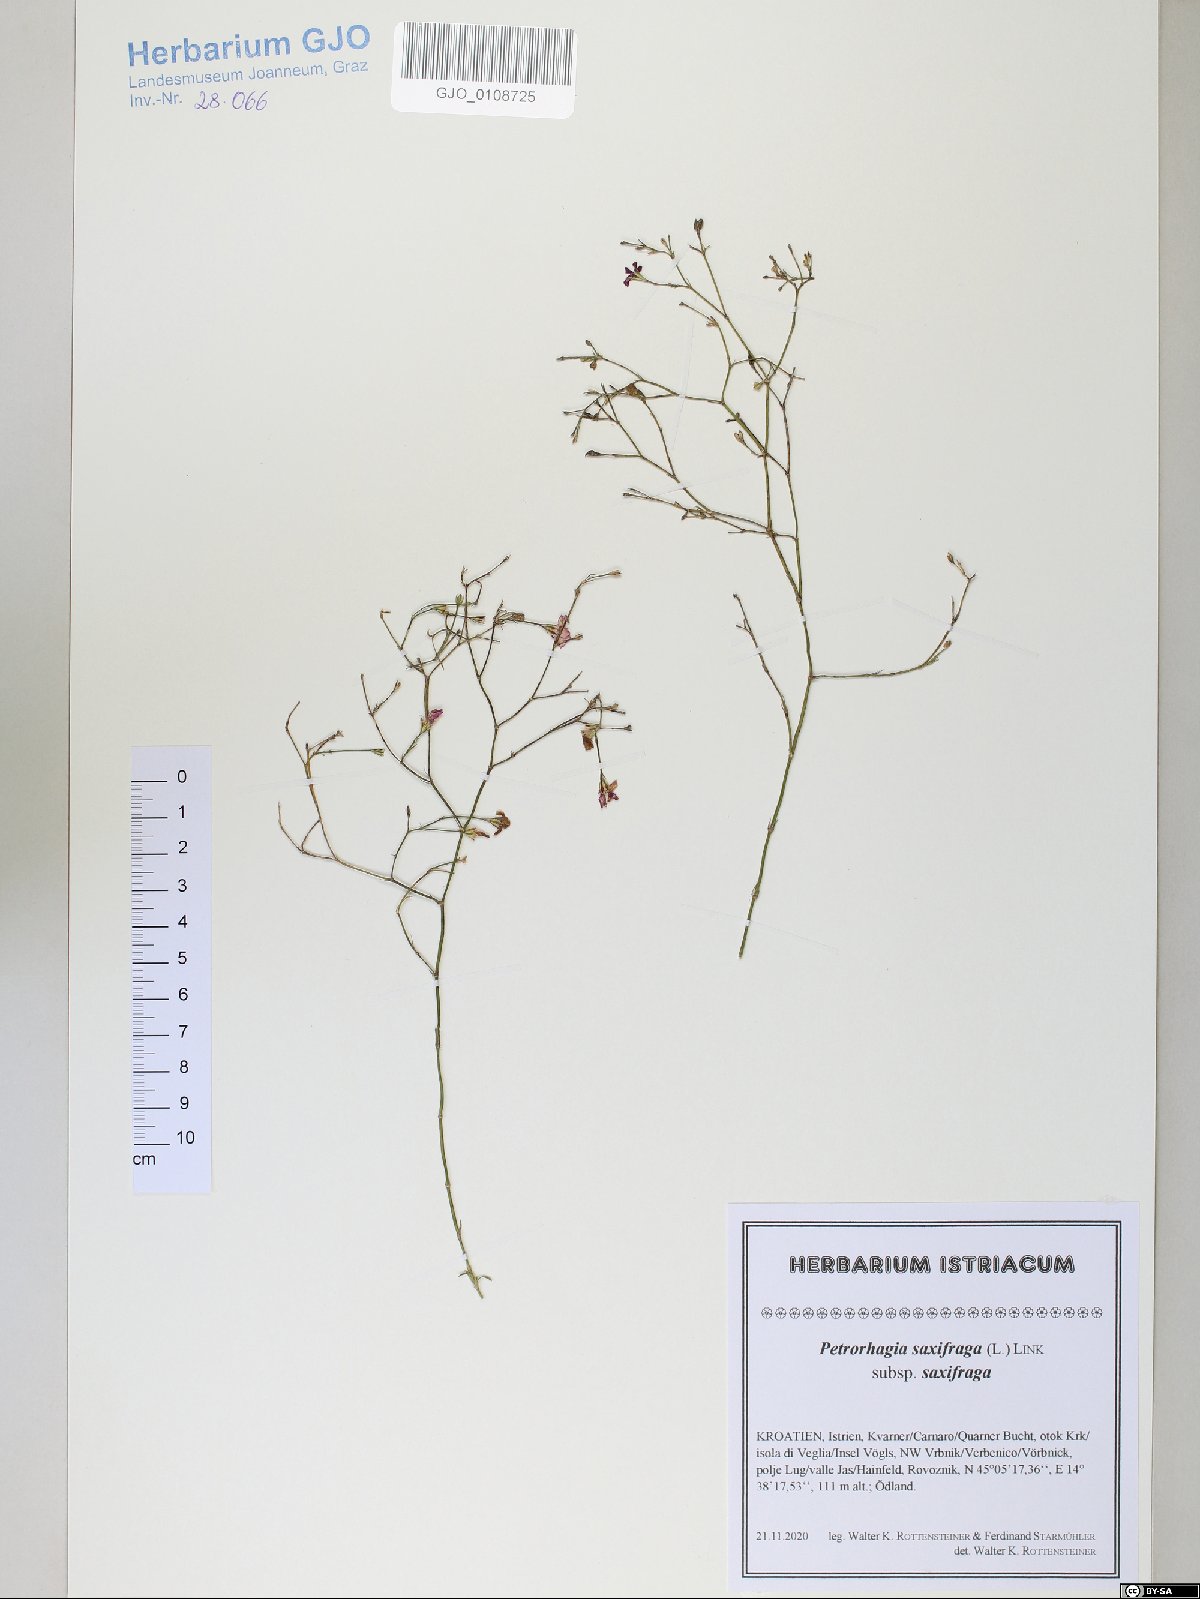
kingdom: Plantae
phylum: Tracheophyta
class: Magnoliopsida
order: Caryophyllales
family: Caryophyllaceae
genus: Petrorhagia
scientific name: Petrorhagia saxifraga
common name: Tunicflower
